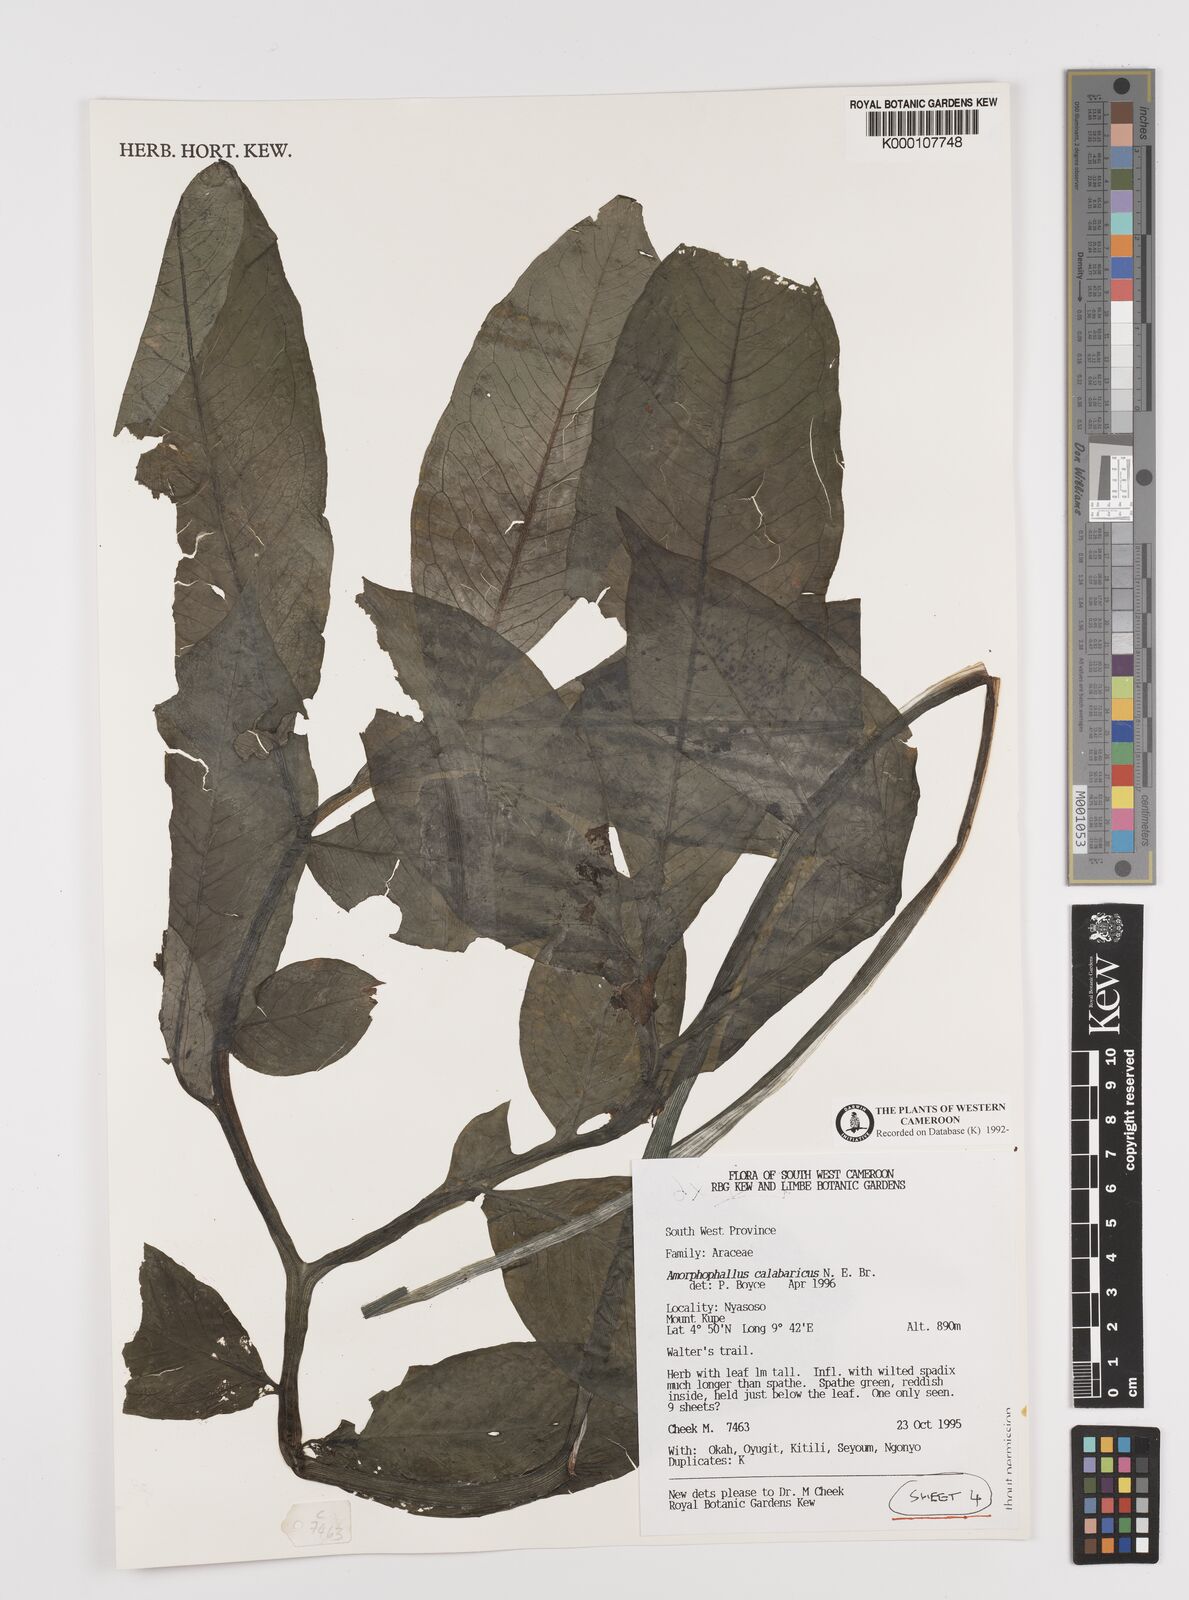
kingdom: Plantae
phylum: Tracheophyta
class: Liliopsida
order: Alismatales
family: Araceae
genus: Amorphophallus
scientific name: Amorphophallus calabaricus
